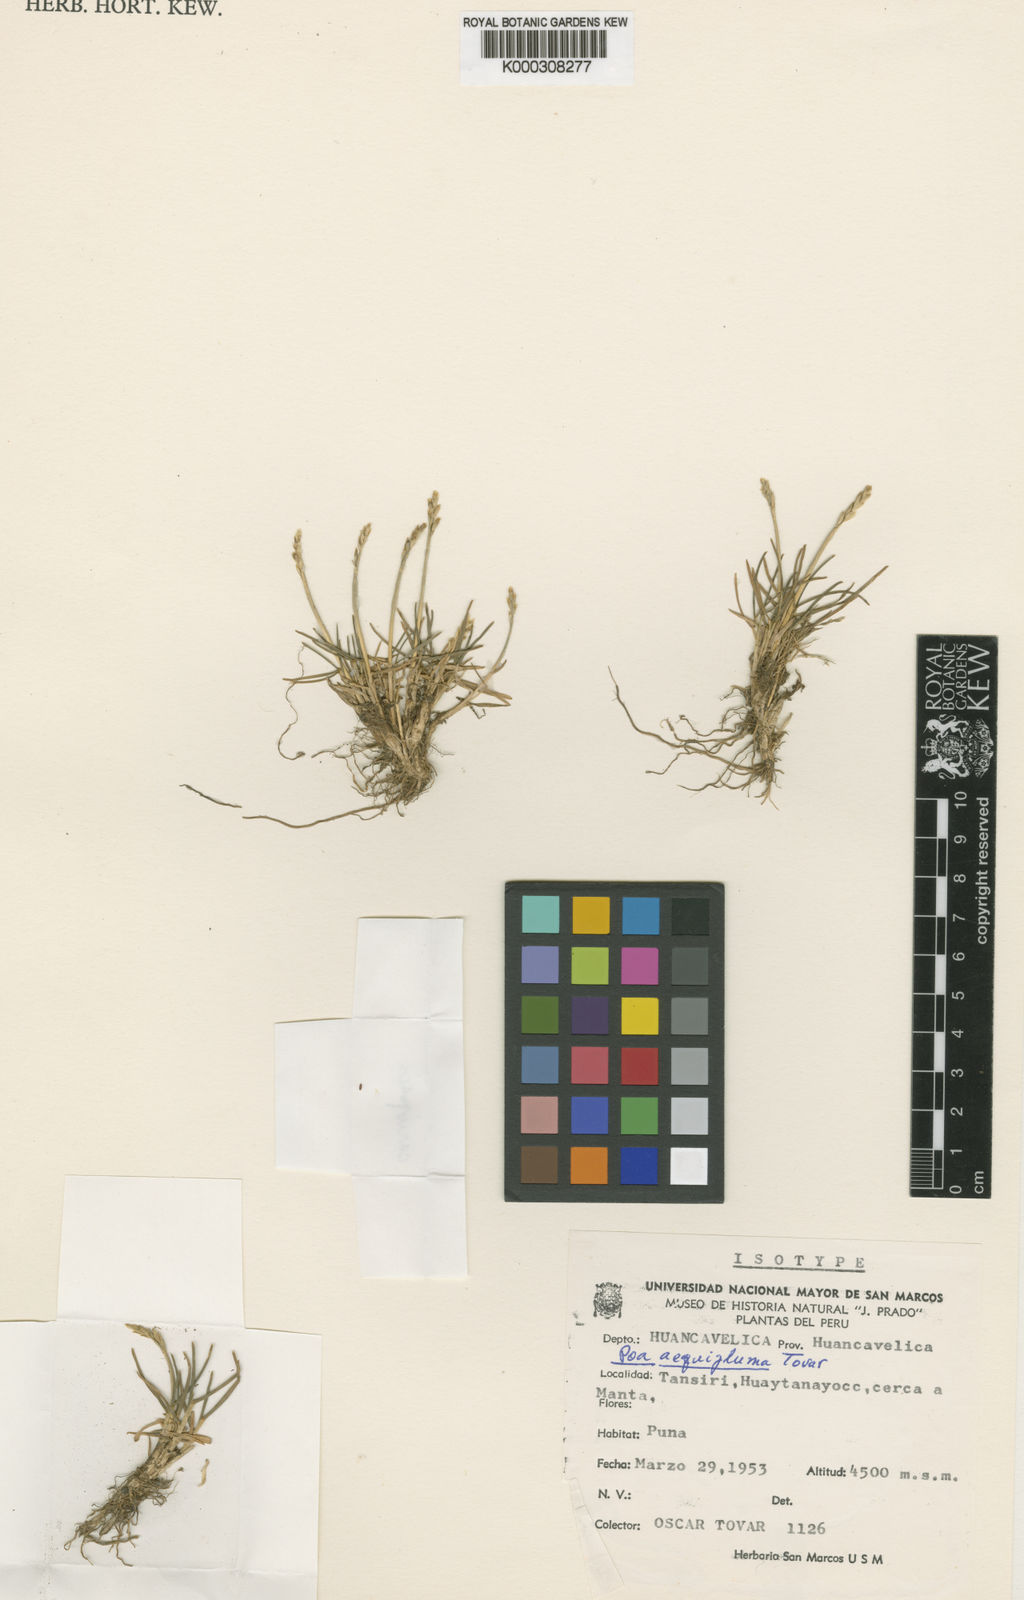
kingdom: Plantae
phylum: Tracheophyta
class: Liliopsida
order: Poales
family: Poaceae
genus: Poa
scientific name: Poa aequigluma
